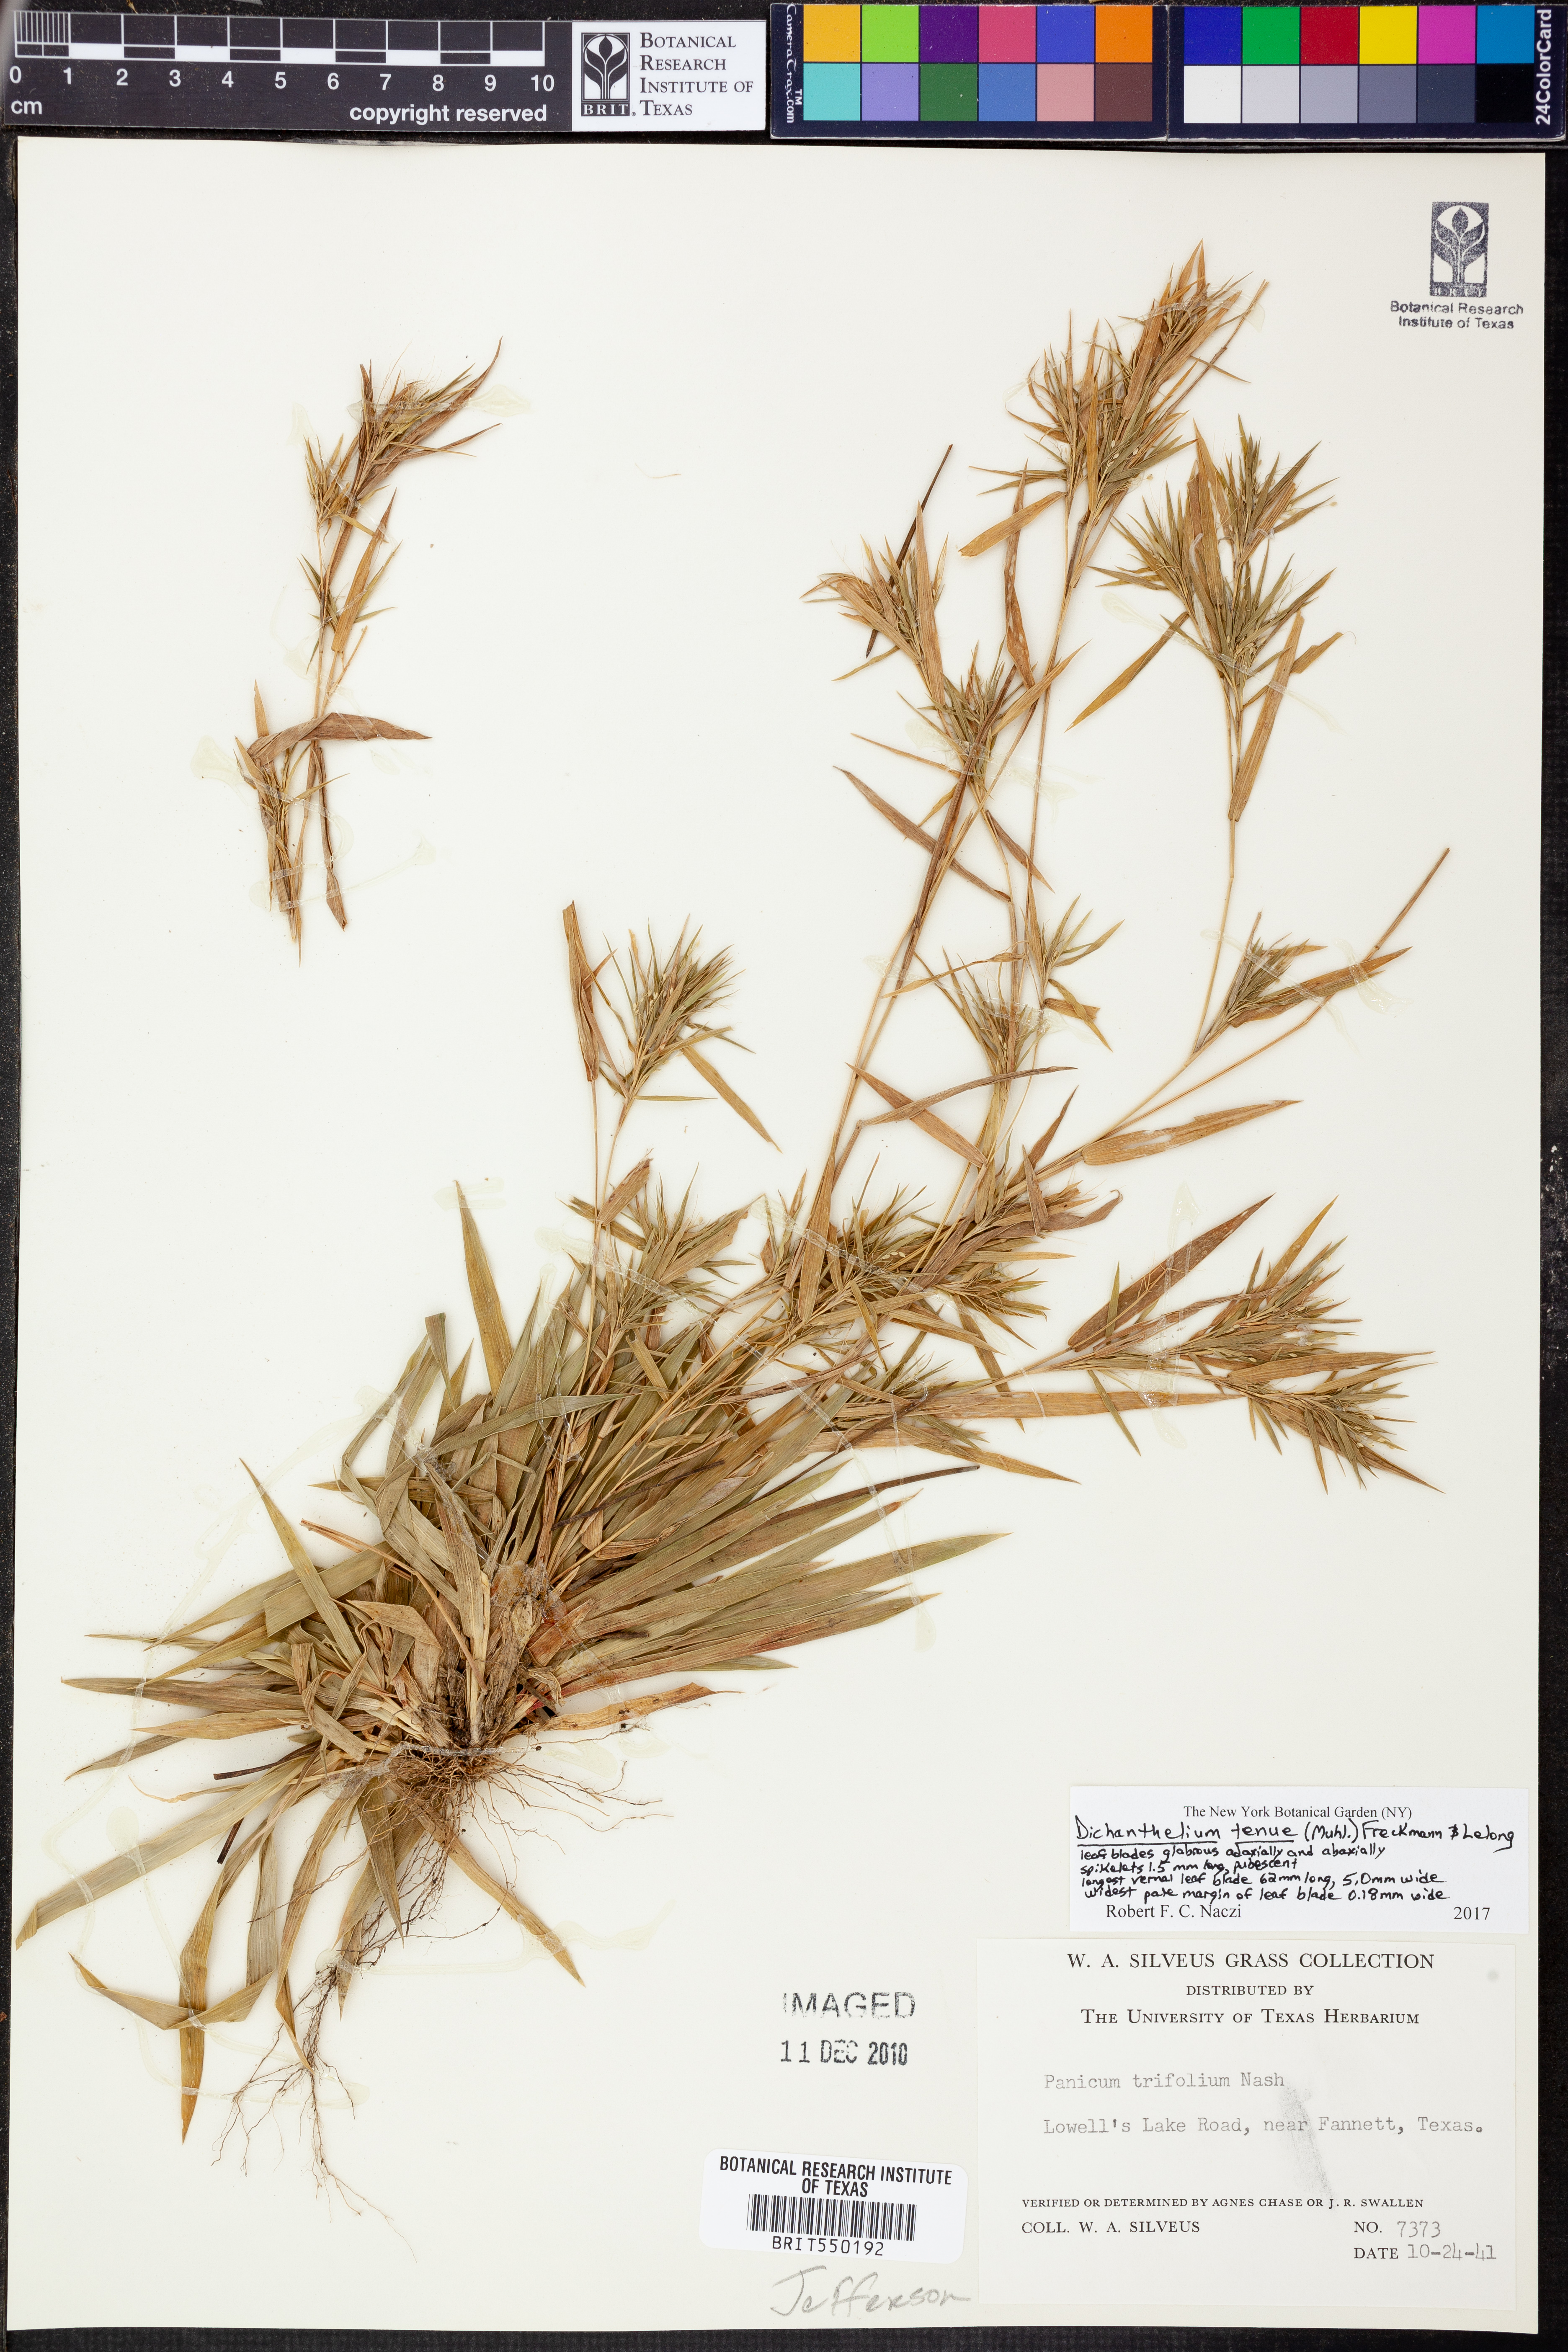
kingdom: Plantae
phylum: Tracheophyta
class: Liliopsida
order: Poales
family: Poaceae
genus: Dichanthelium
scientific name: Dichanthelium tenue
